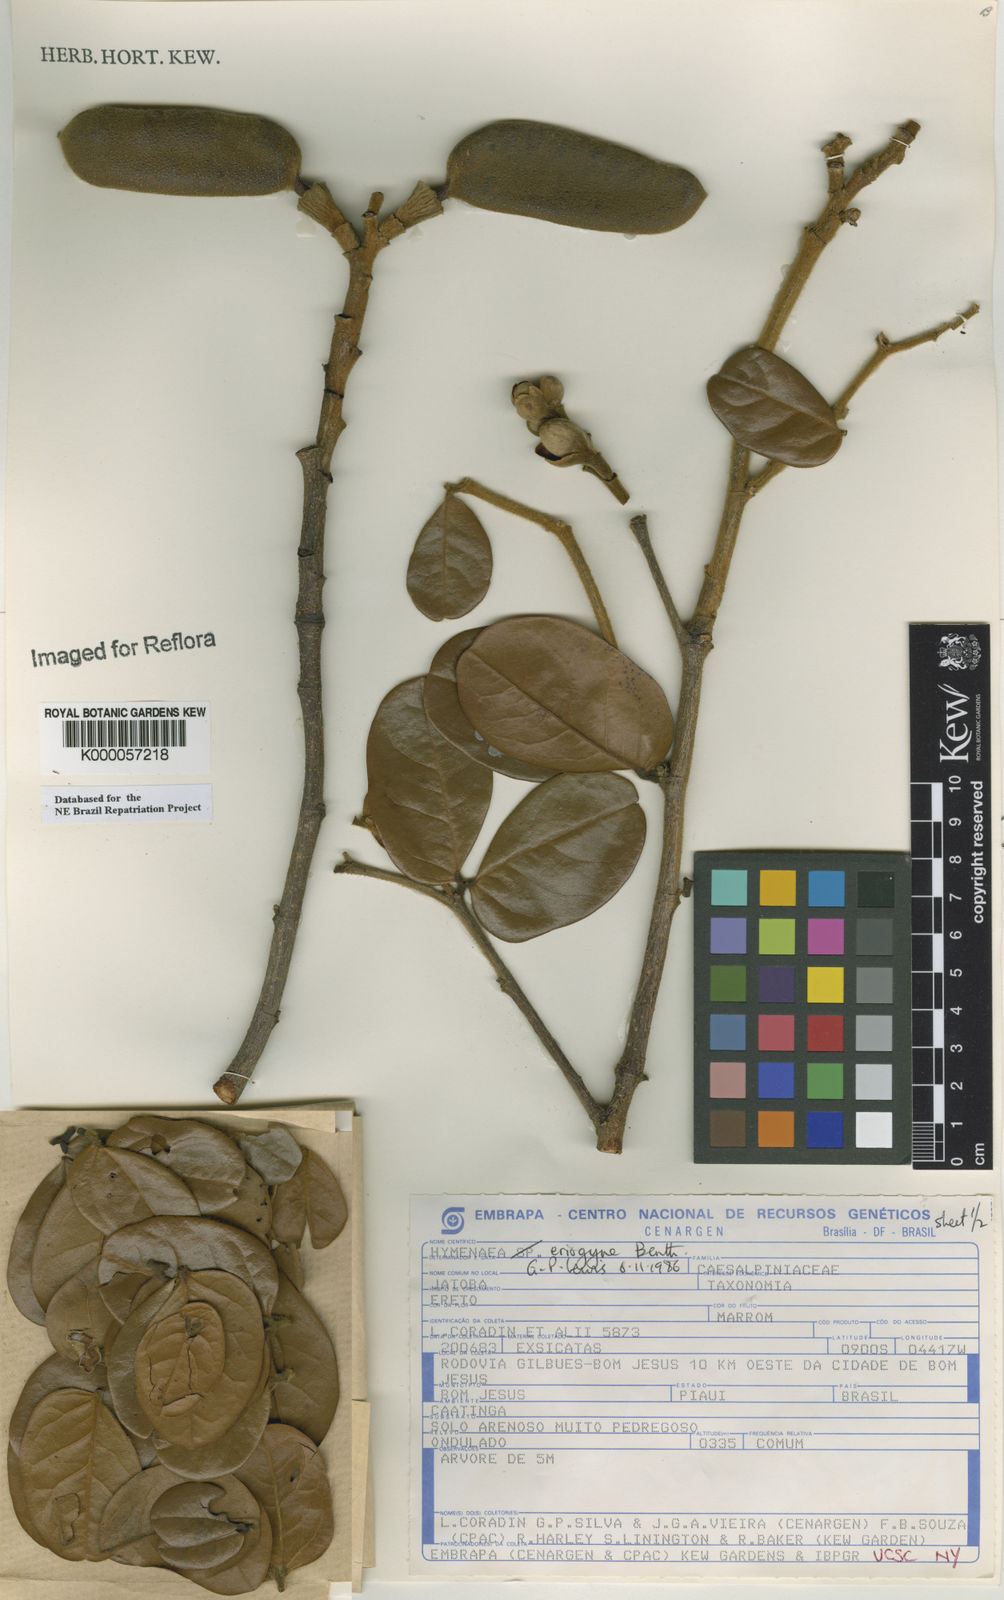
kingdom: Plantae
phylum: Tracheophyta
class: Magnoliopsida
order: Fabales
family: Fabaceae
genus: Hymenaea
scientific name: Hymenaea eriogyne
